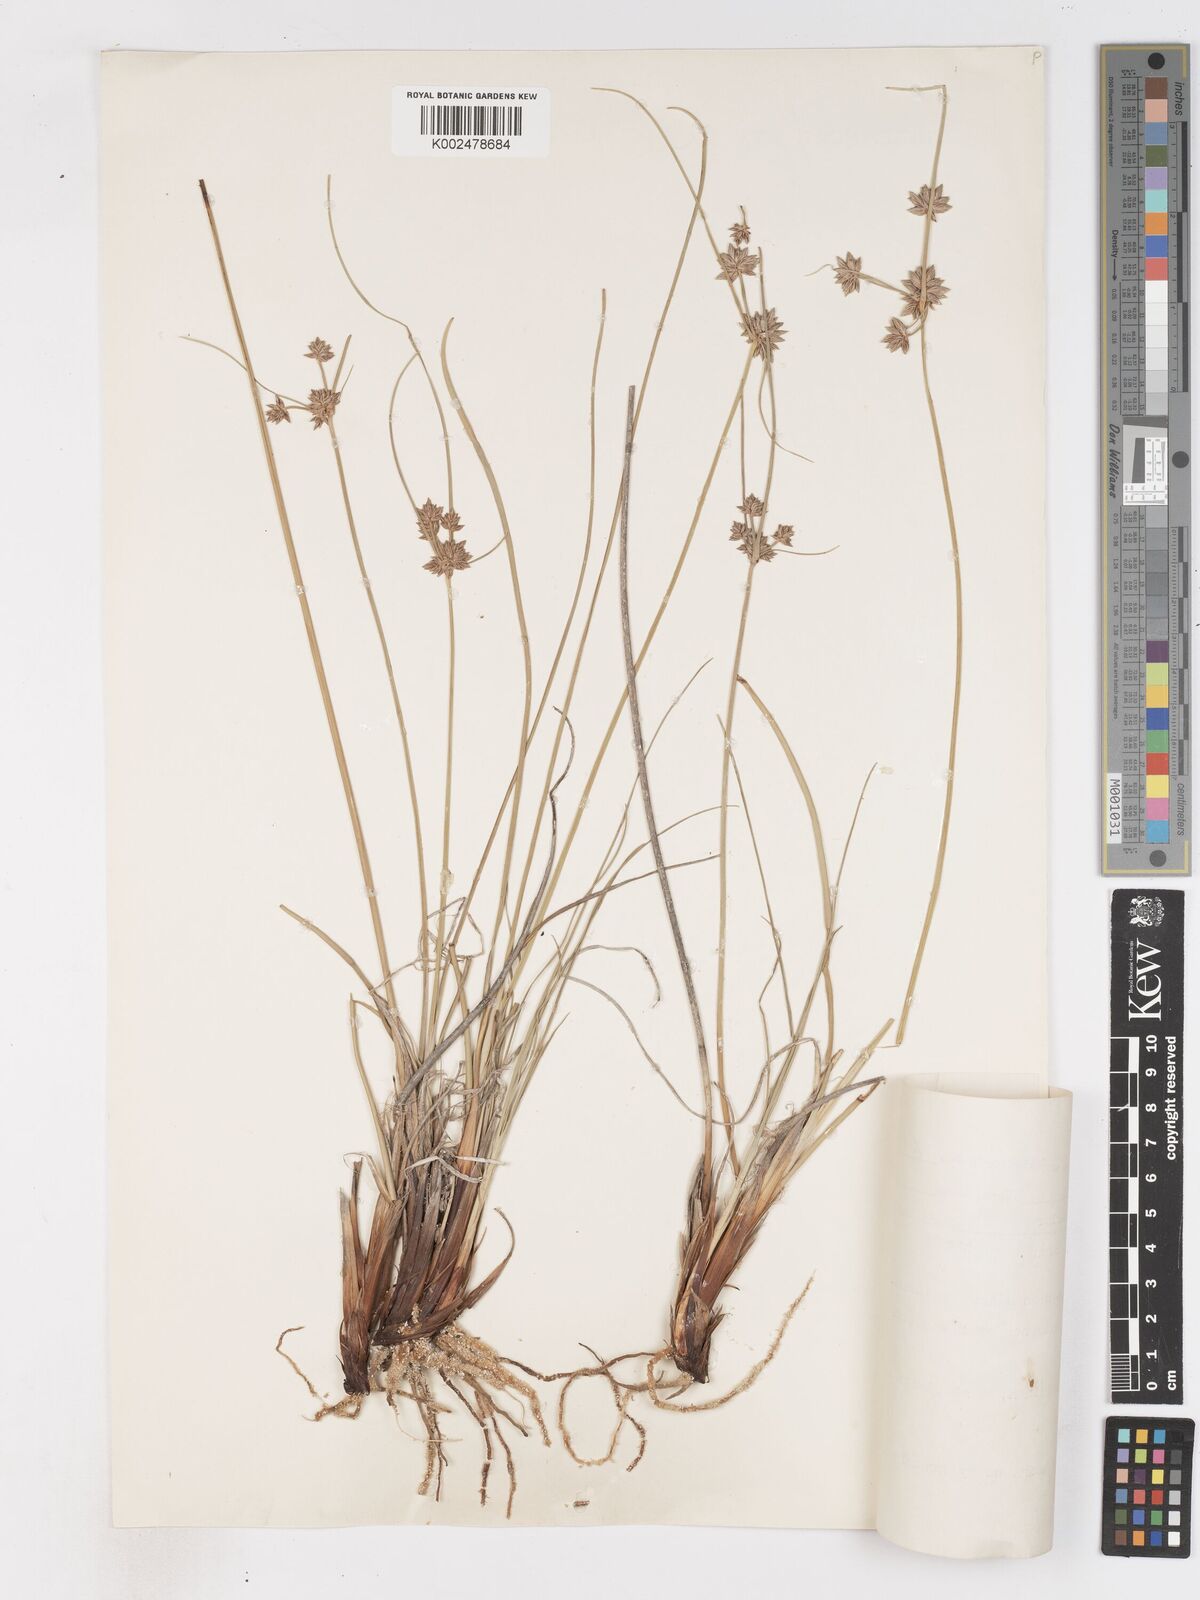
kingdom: Plantae
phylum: Tracheophyta
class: Liliopsida
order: Poales
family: Cyperaceae
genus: Cyperus
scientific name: Cyperus conglomeratus
